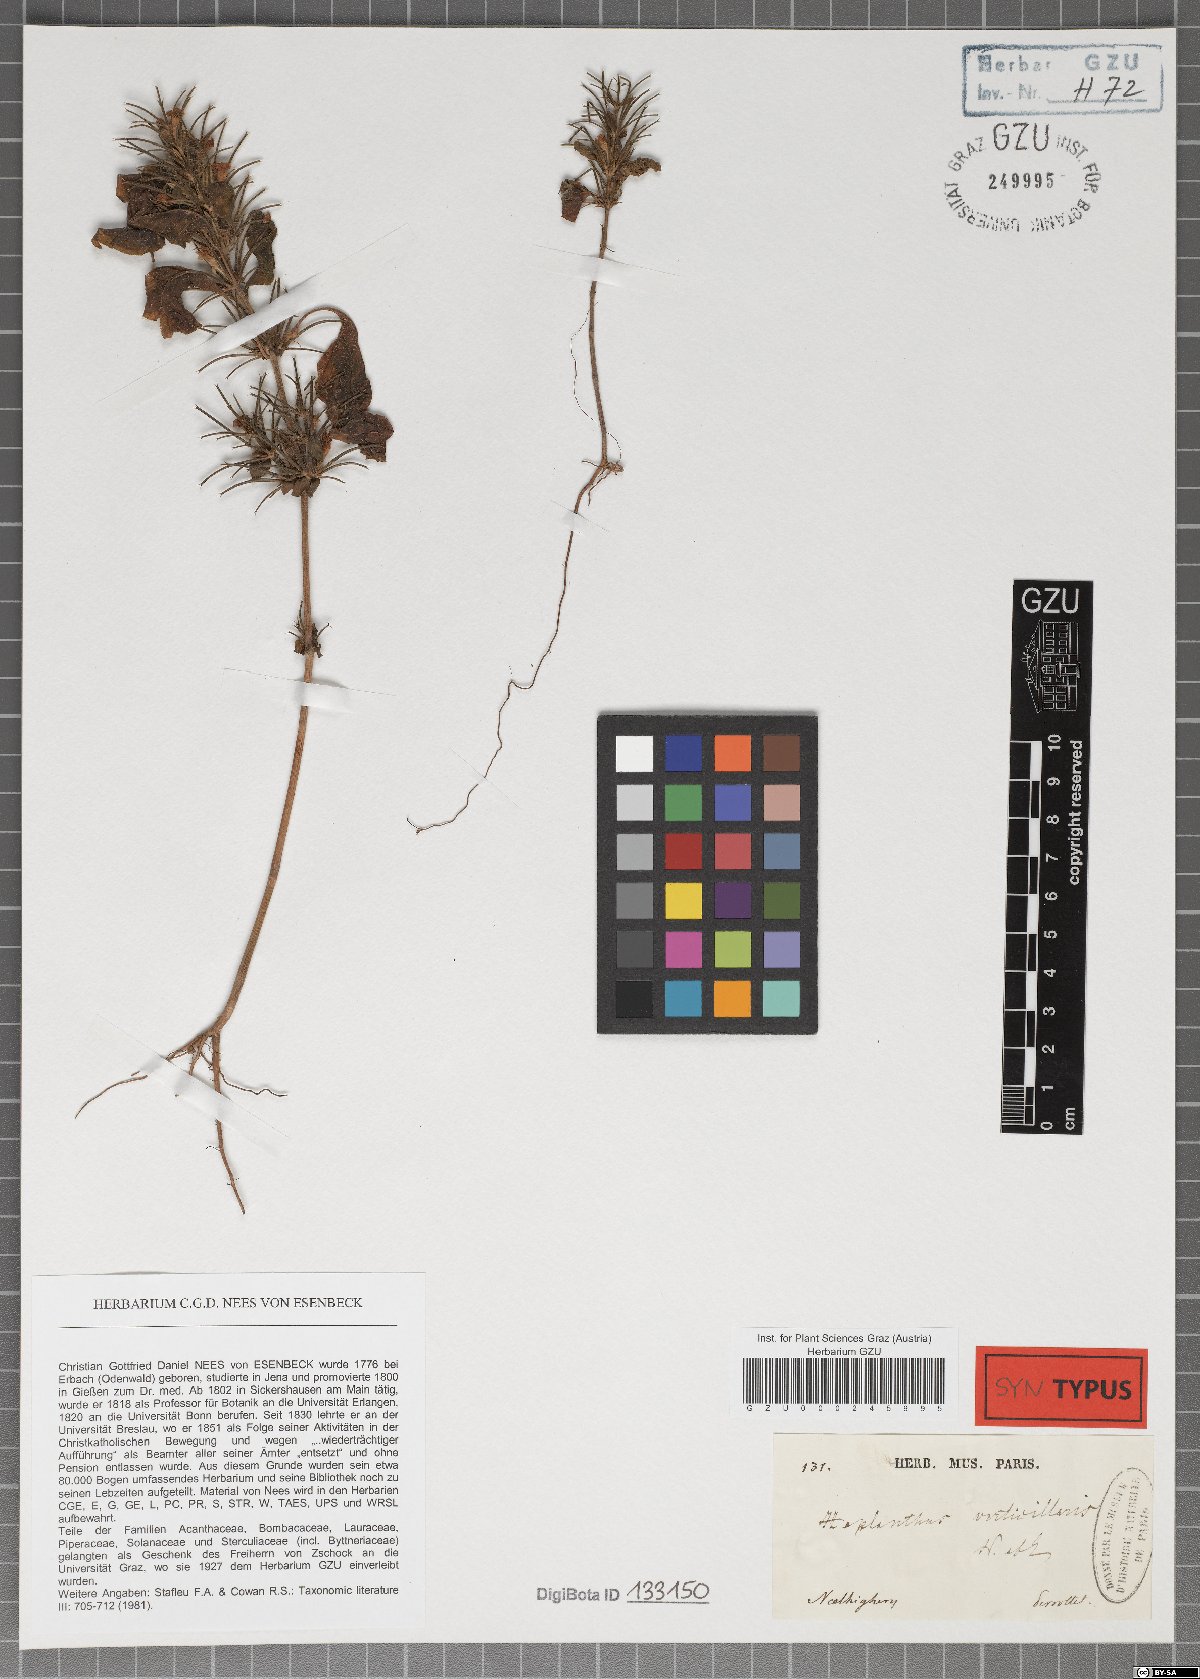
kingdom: Plantae
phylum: Tracheophyta
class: Magnoliopsida
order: Lamiales
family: Acanthaceae
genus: Haplanthodes
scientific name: Haplanthodes verticillatus
